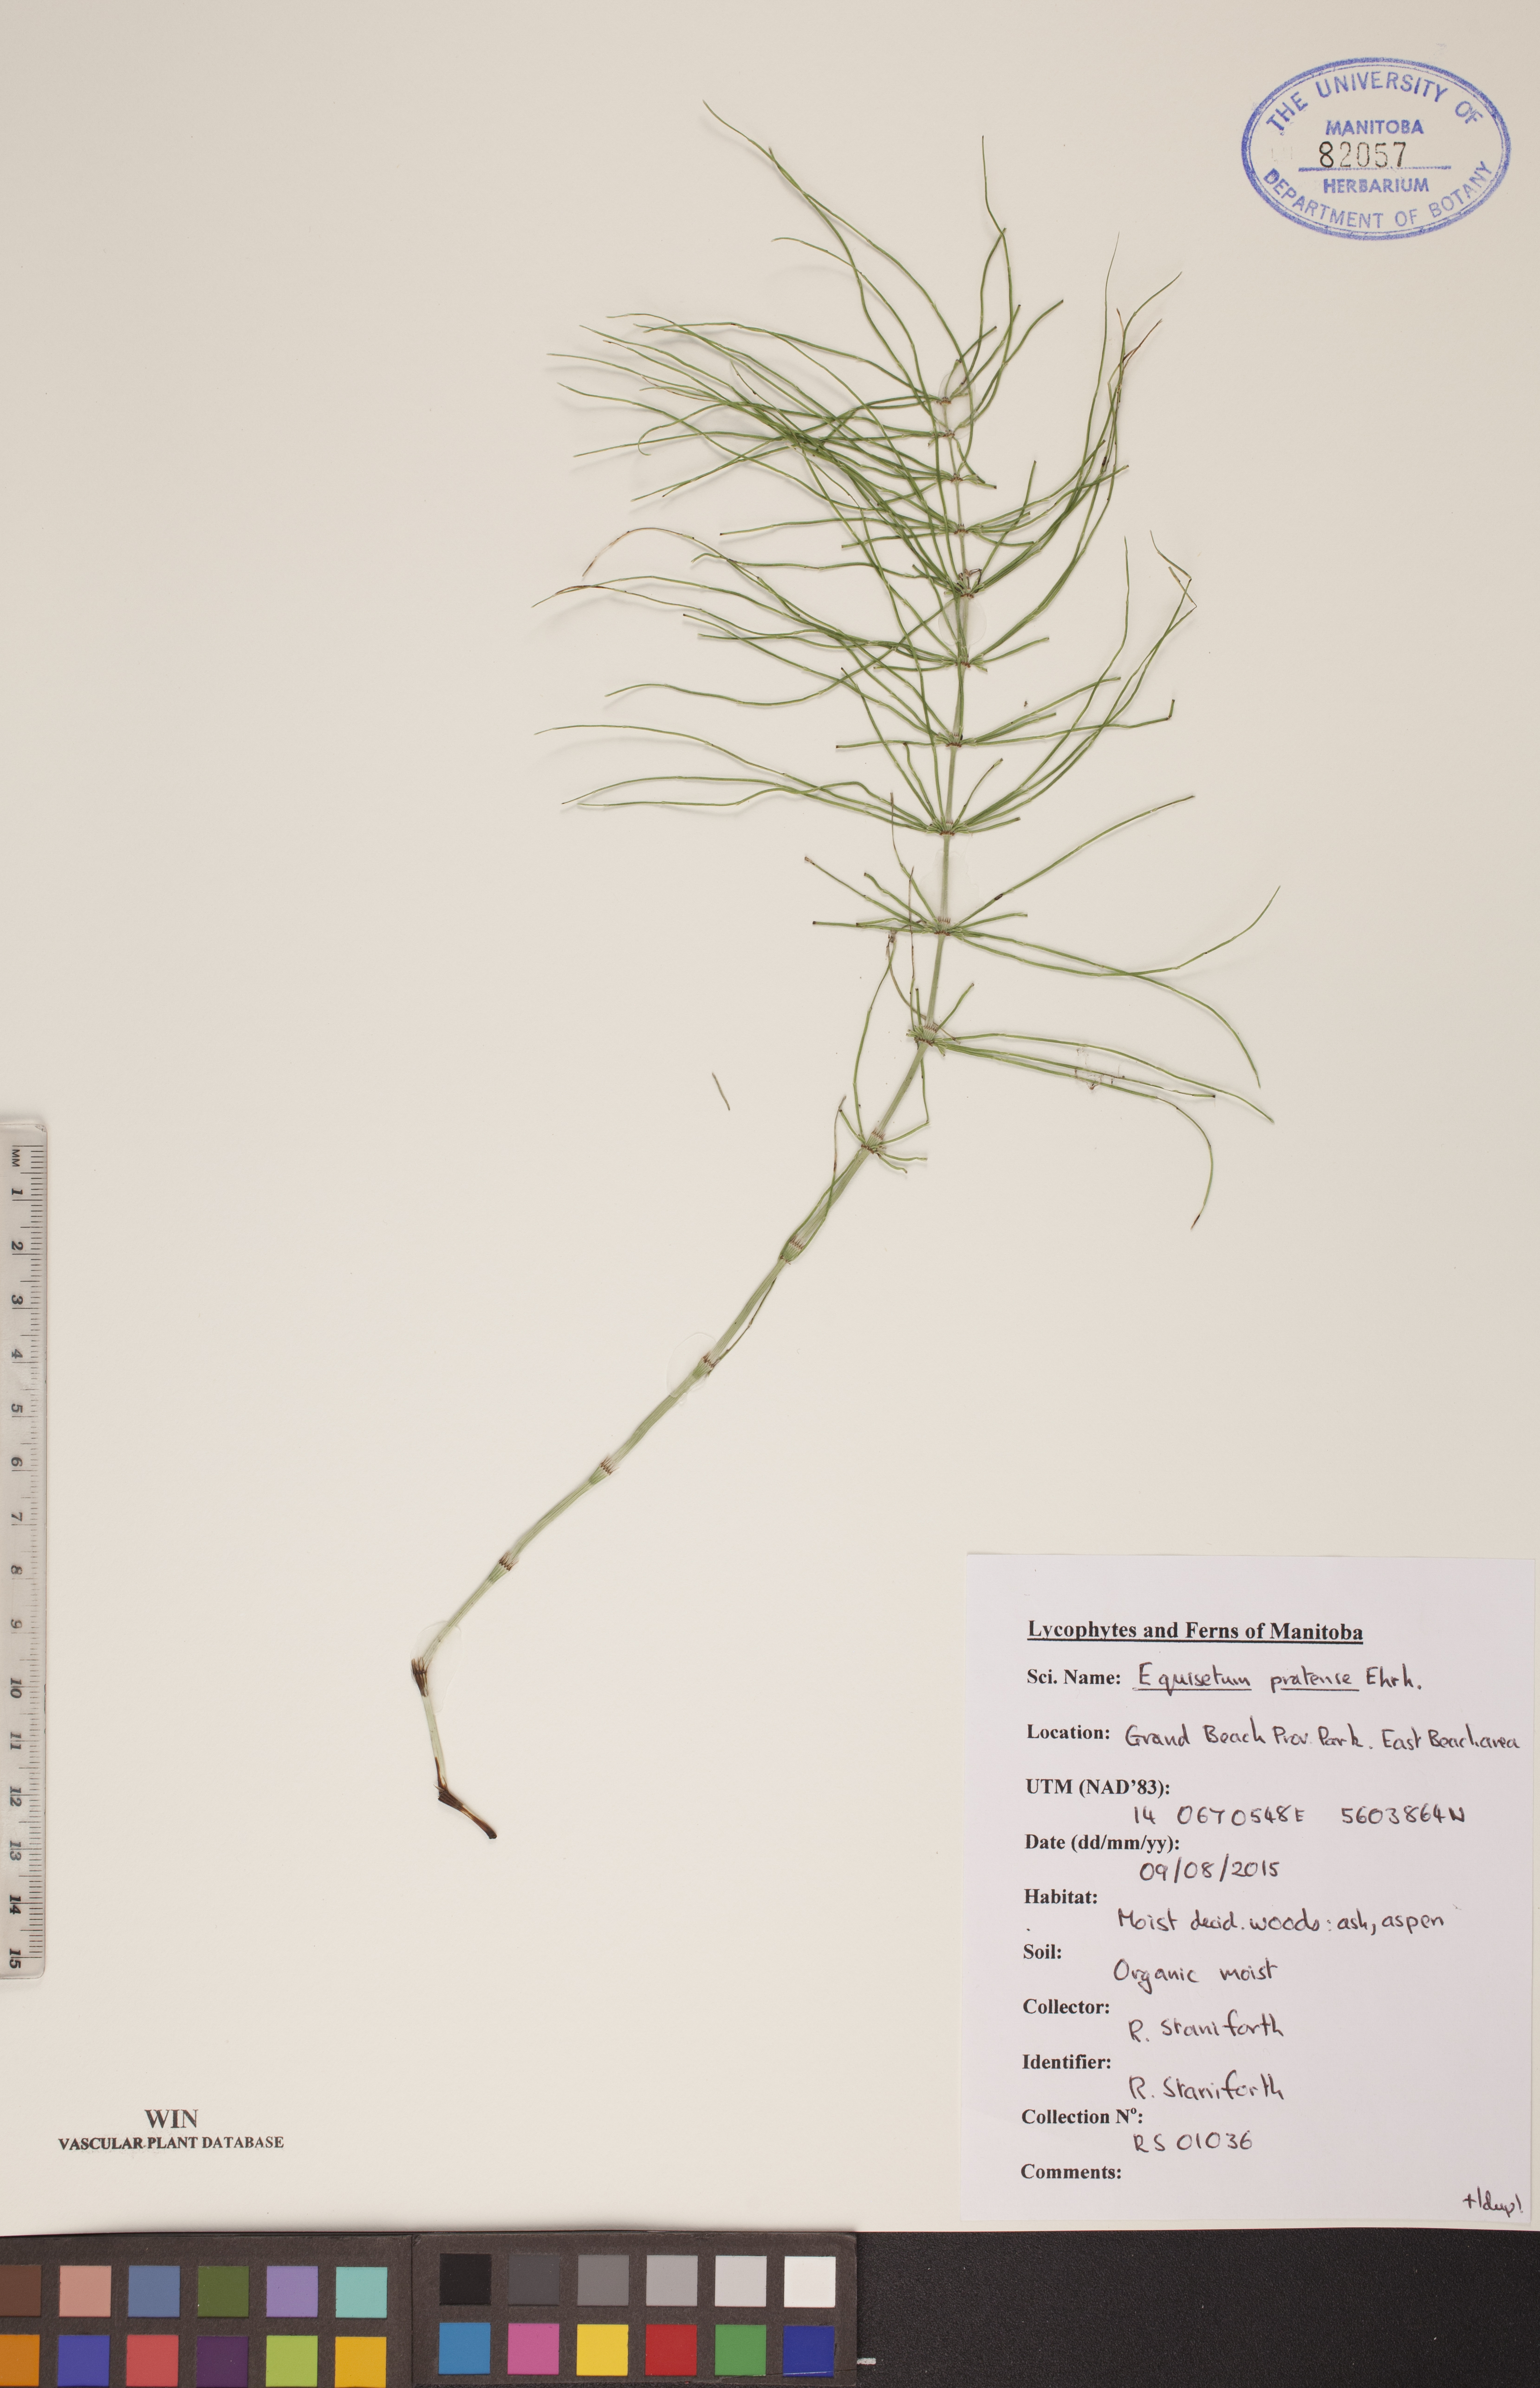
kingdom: Plantae
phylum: Tracheophyta
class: Polypodiopsida
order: Equisetales
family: Equisetaceae
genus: Equisetum
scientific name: Equisetum pratense
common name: Meadow horsetail
